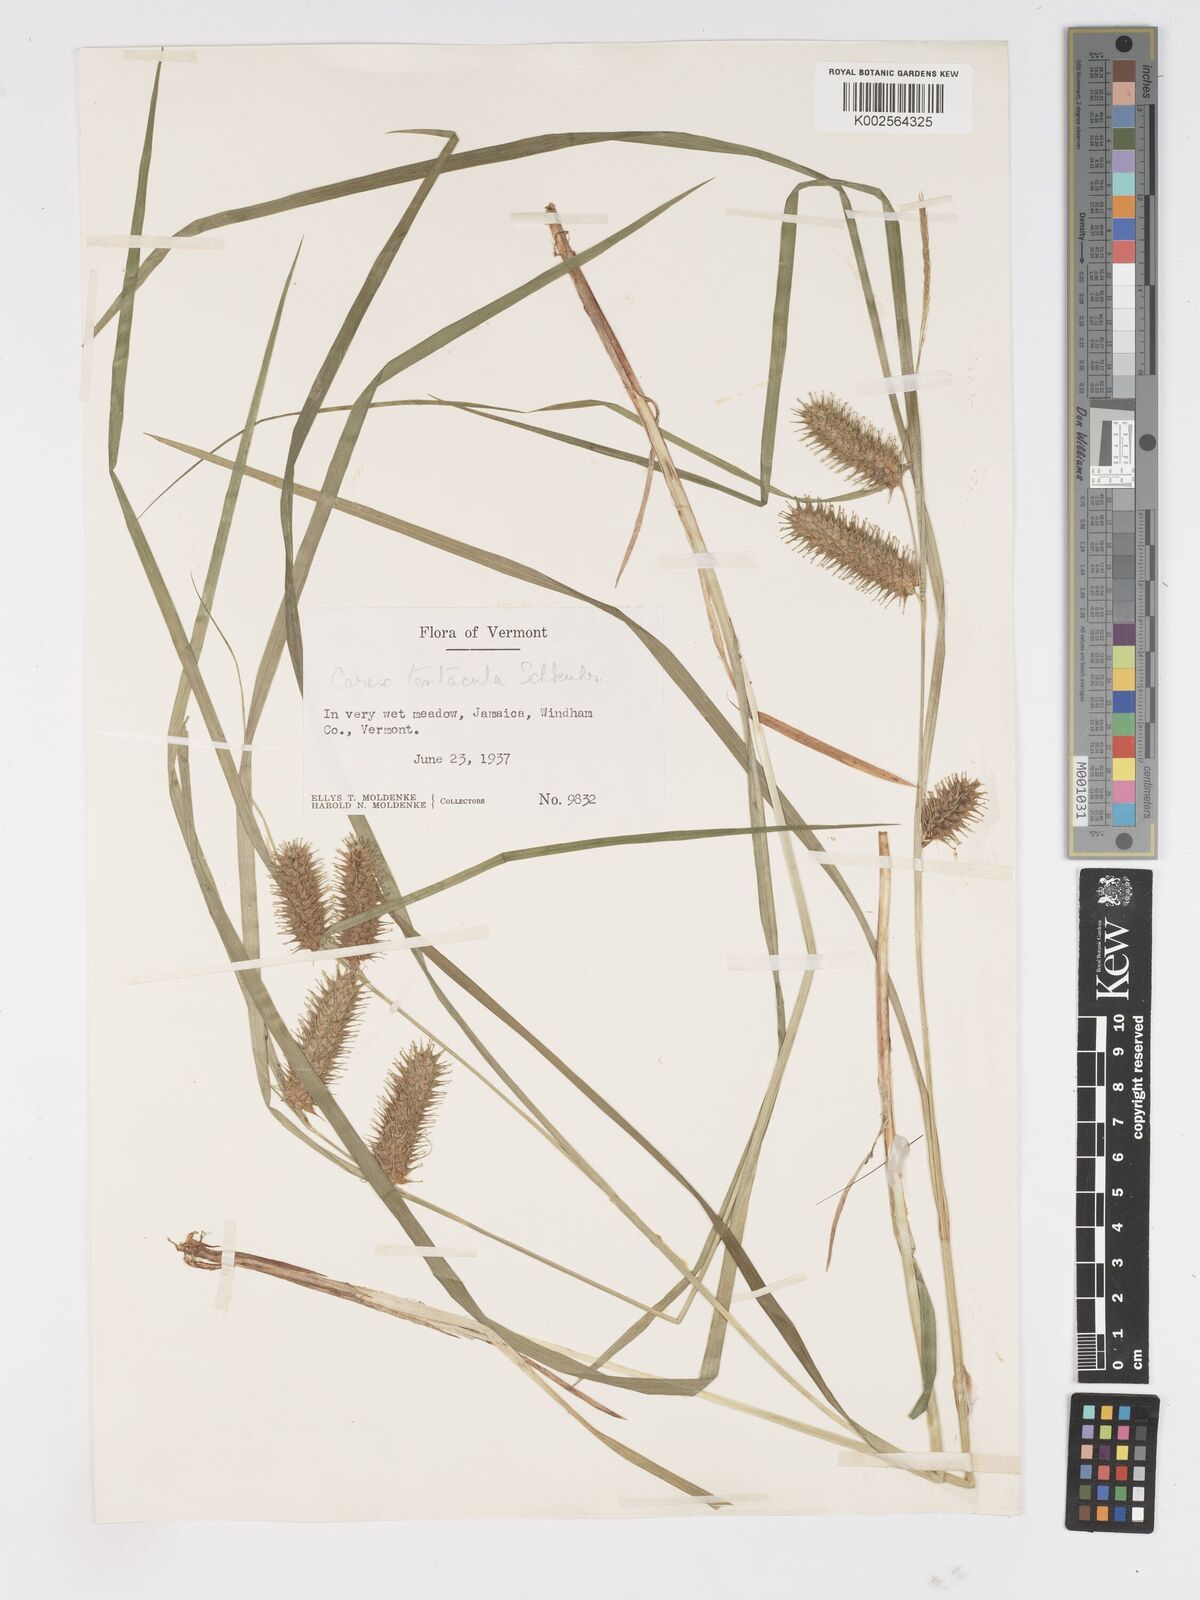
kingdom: Plantae
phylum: Tracheophyta
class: Liliopsida
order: Poales
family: Cyperaceae
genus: Carex
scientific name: Carex lurida
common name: Sallow sedge
